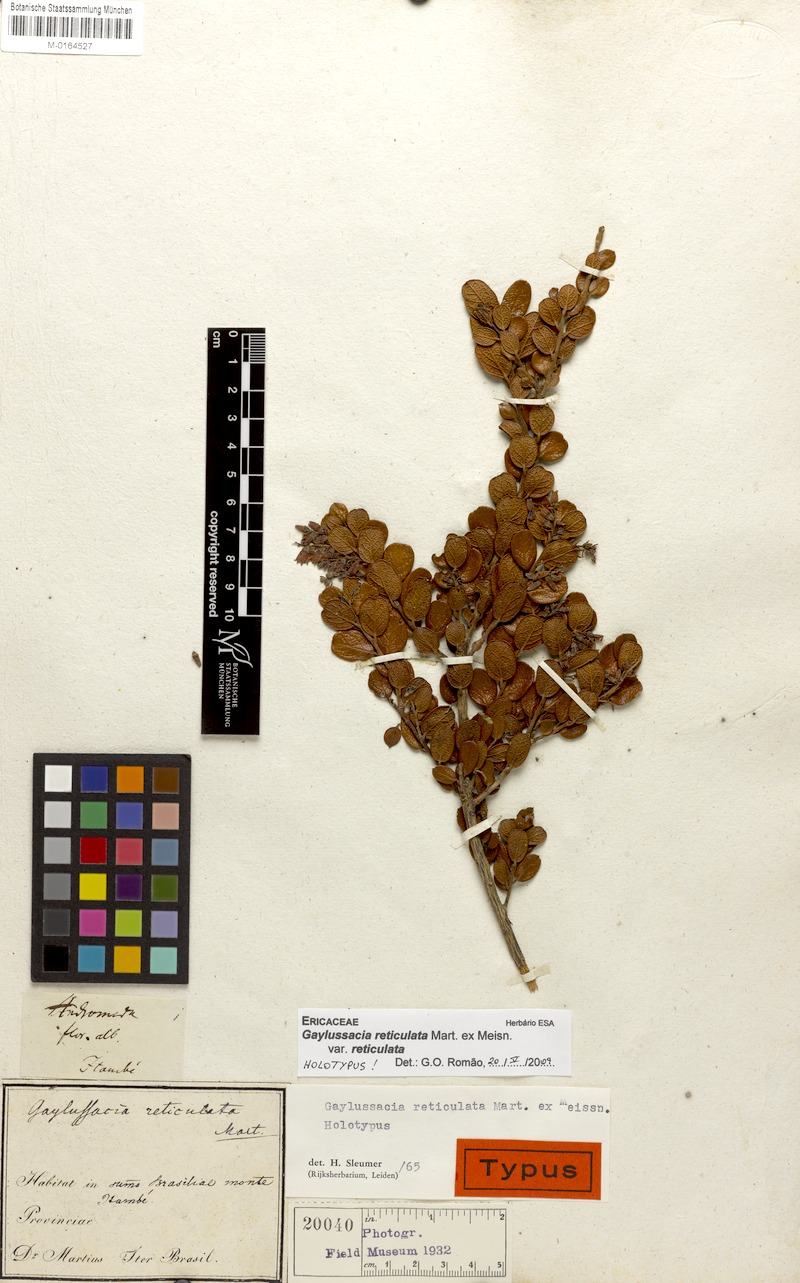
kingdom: Plantae
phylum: Tracheophyta
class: Magnoliopsida
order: Ericales
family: Ericaceae
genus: Gaylussacia
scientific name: Gaylussacia reticulata
